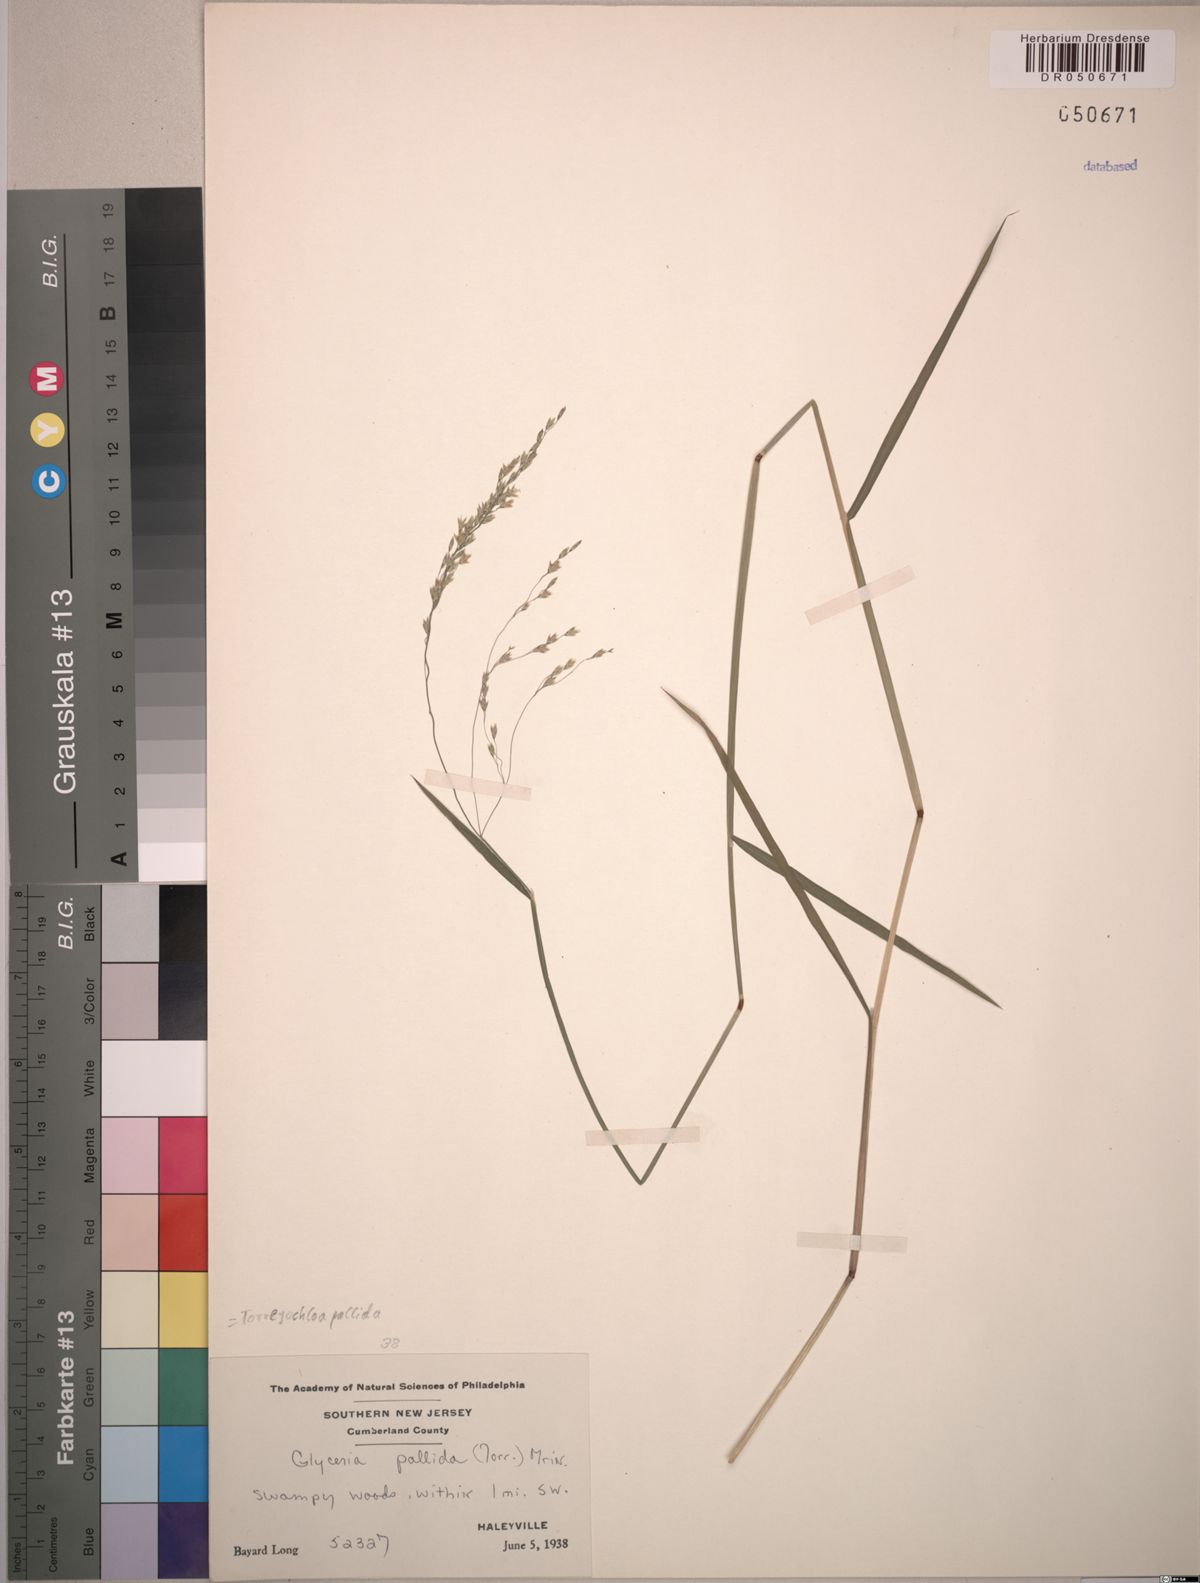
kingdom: Plantae
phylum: Tracheophyta
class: Liliopsida
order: Poales
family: Poaceae
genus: Torreyochloa
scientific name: Torreyochloa pallida
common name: Pale false mannagrass
